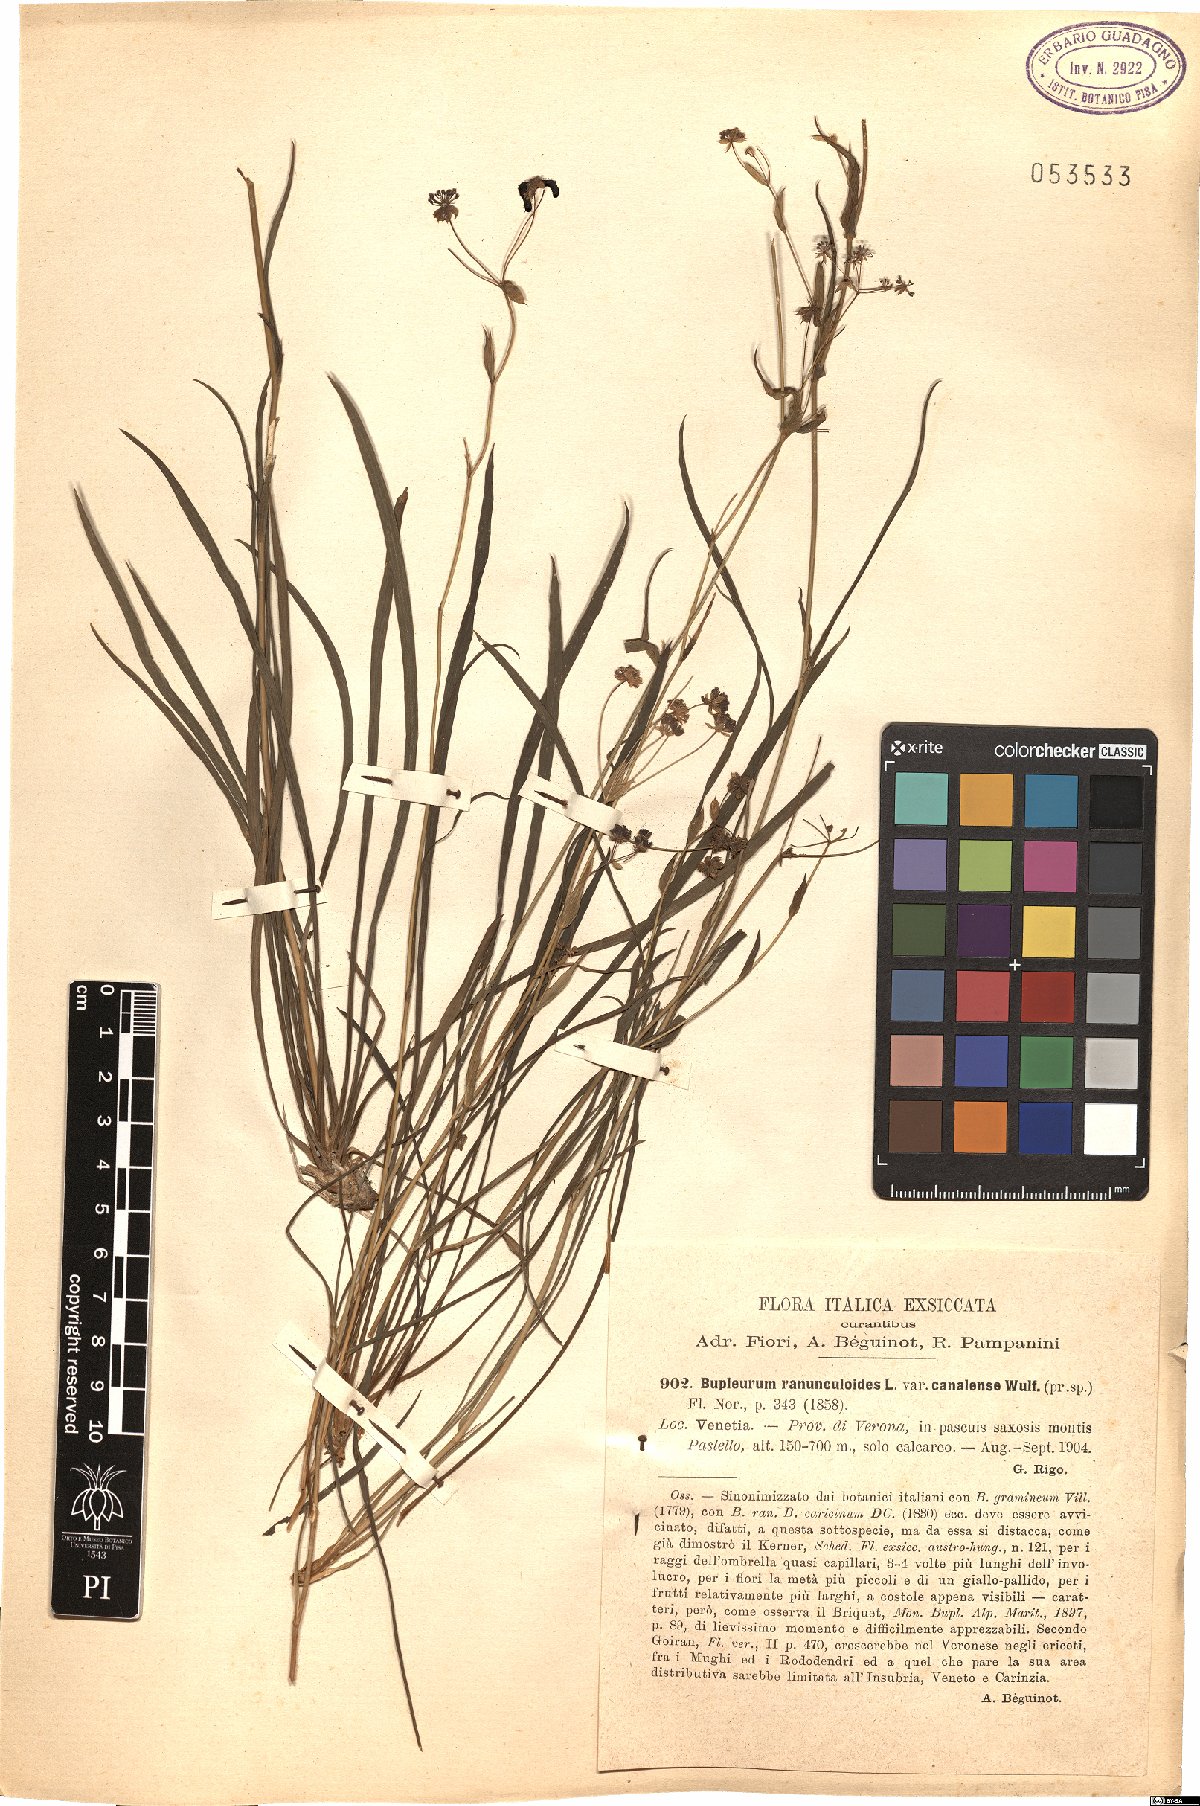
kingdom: Plantae
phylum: Tracheophyta
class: Magnoliopsida
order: Apiales
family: Apiaceae
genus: Bupleurum
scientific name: Bupleurum ranunculoides
